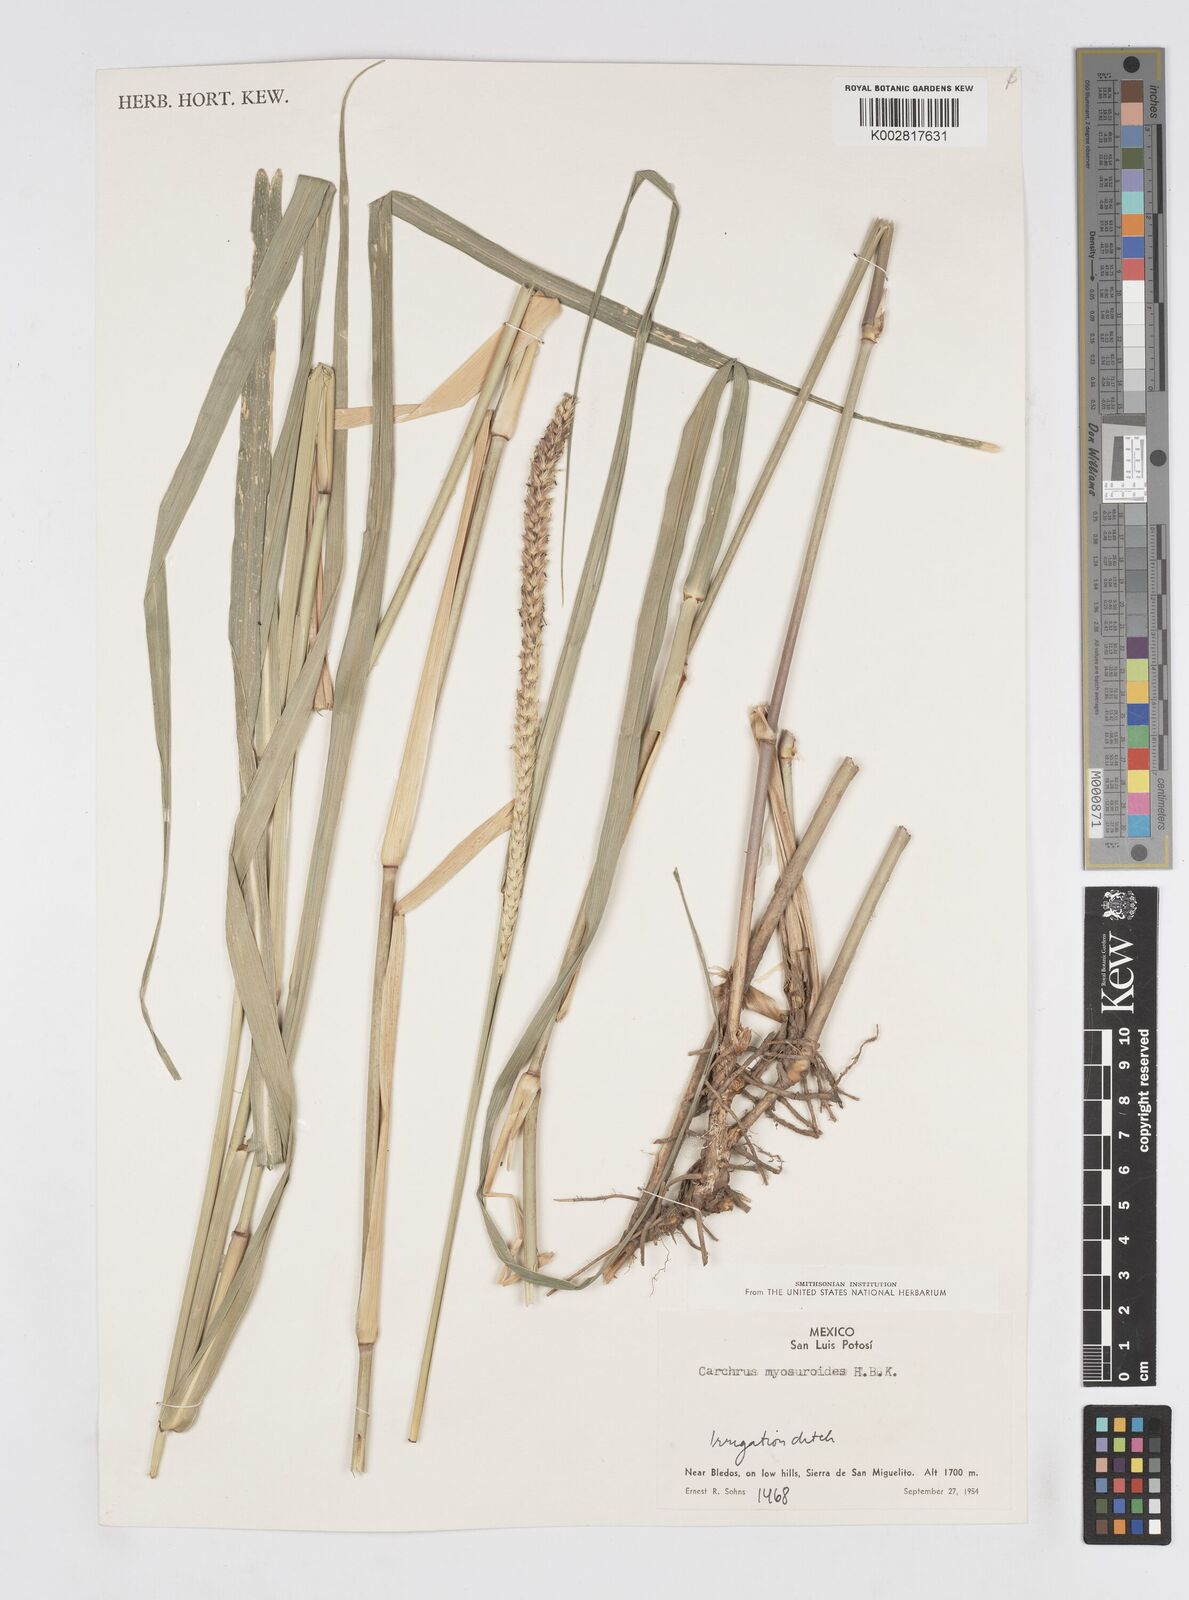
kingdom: Plantae
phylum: Tracheophyta
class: Liliopsida
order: Poales
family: Poaceae
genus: Cenchrus
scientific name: Cenchrus myosuroides
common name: Big sandbur
